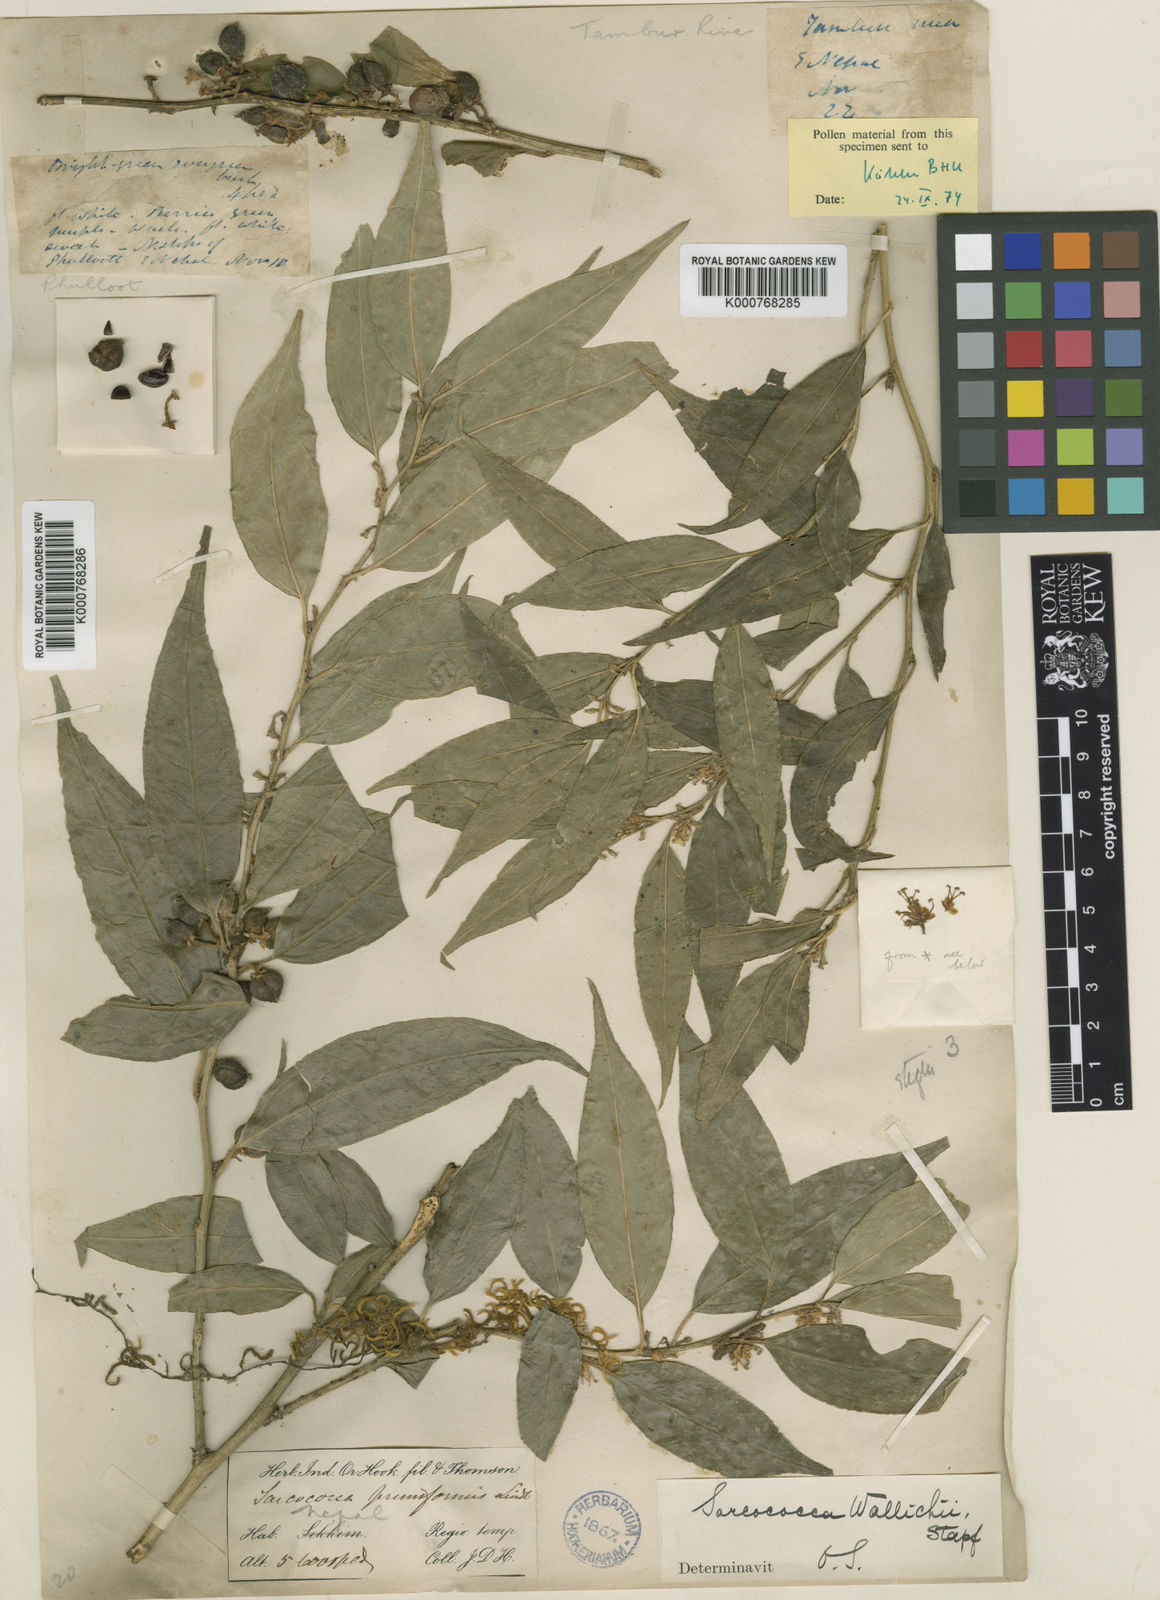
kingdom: Plantae
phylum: Tracheophyta
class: Magnoliopsida
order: Buxales
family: Buxaceae
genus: Sarcococca
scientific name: Sarcococca wallichii
